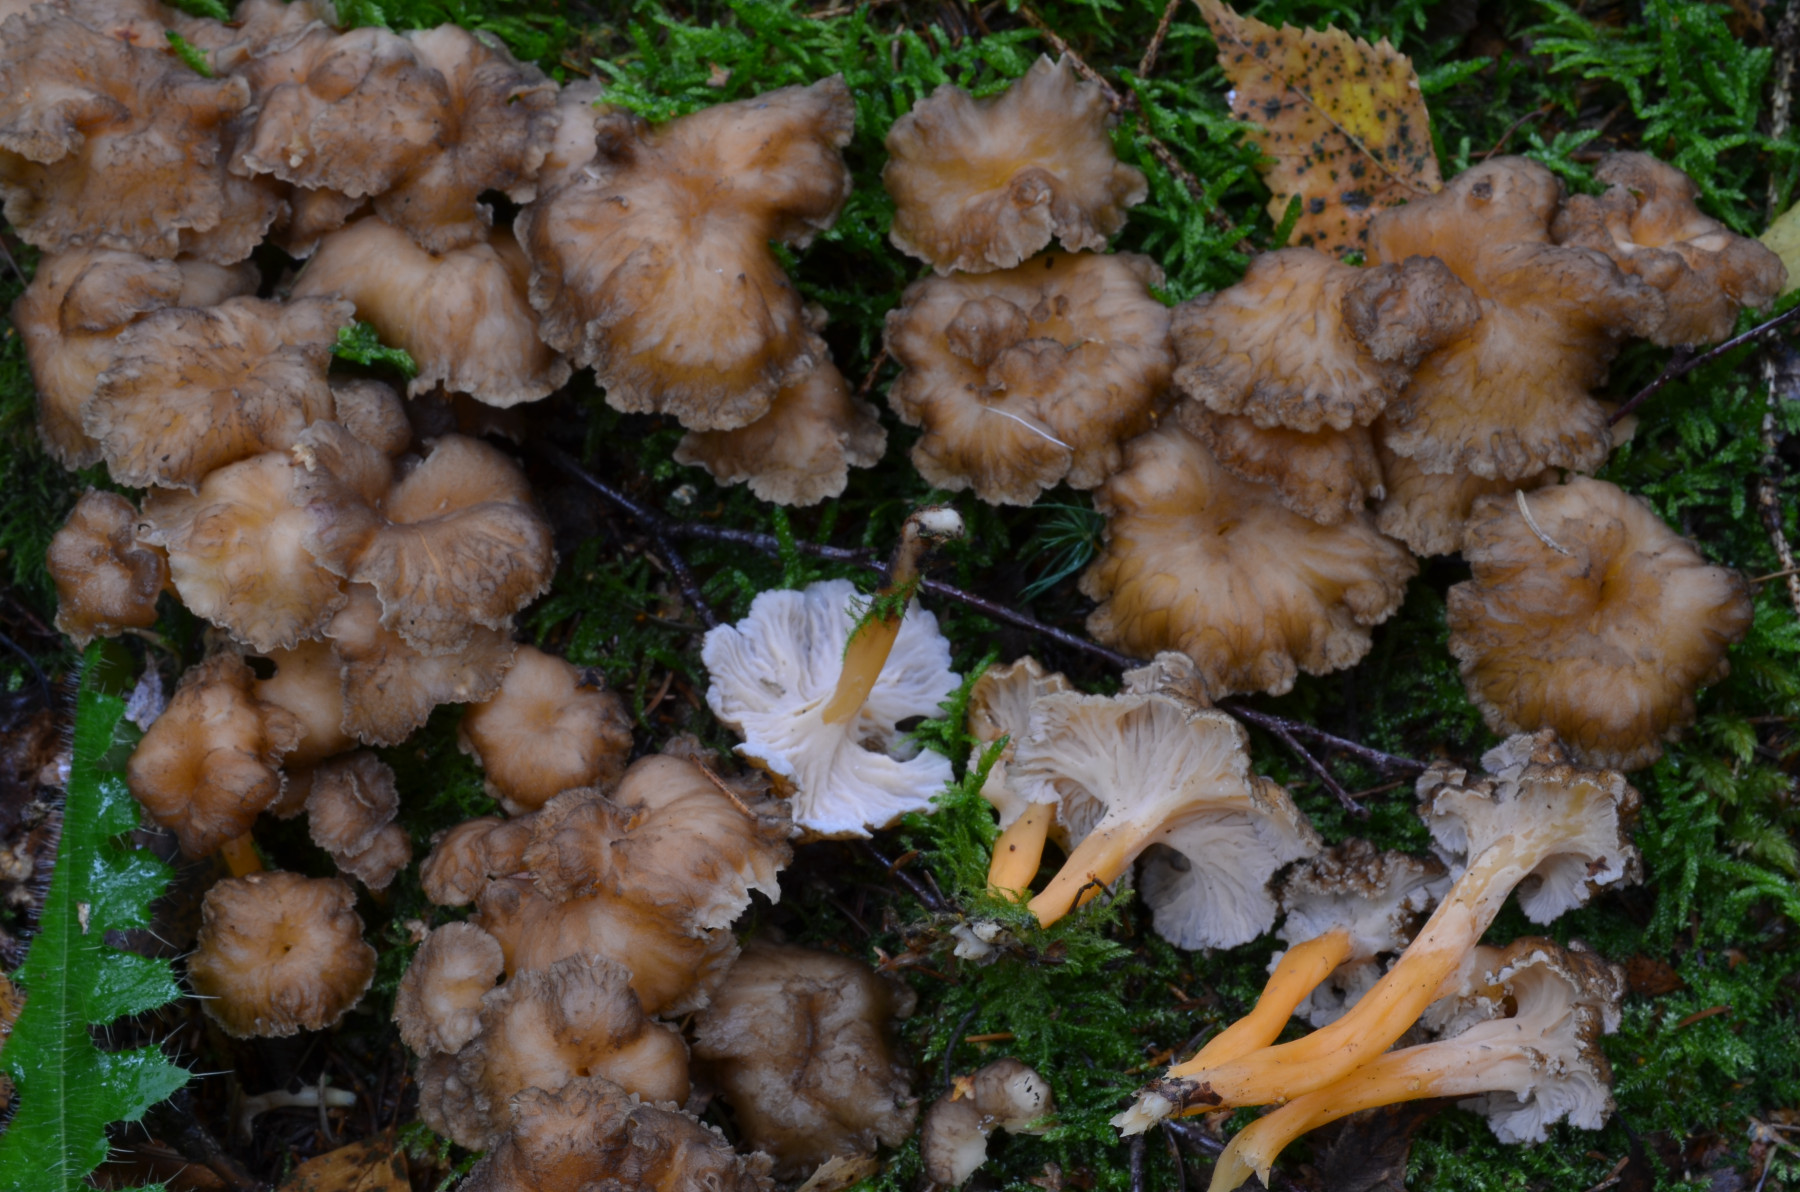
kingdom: Fungi
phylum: Basidiomycota
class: Agaricomycetes
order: Cantharellales
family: Hydnaceae
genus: Craterellus
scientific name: Craterellus lutescens
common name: gylden kantarel
